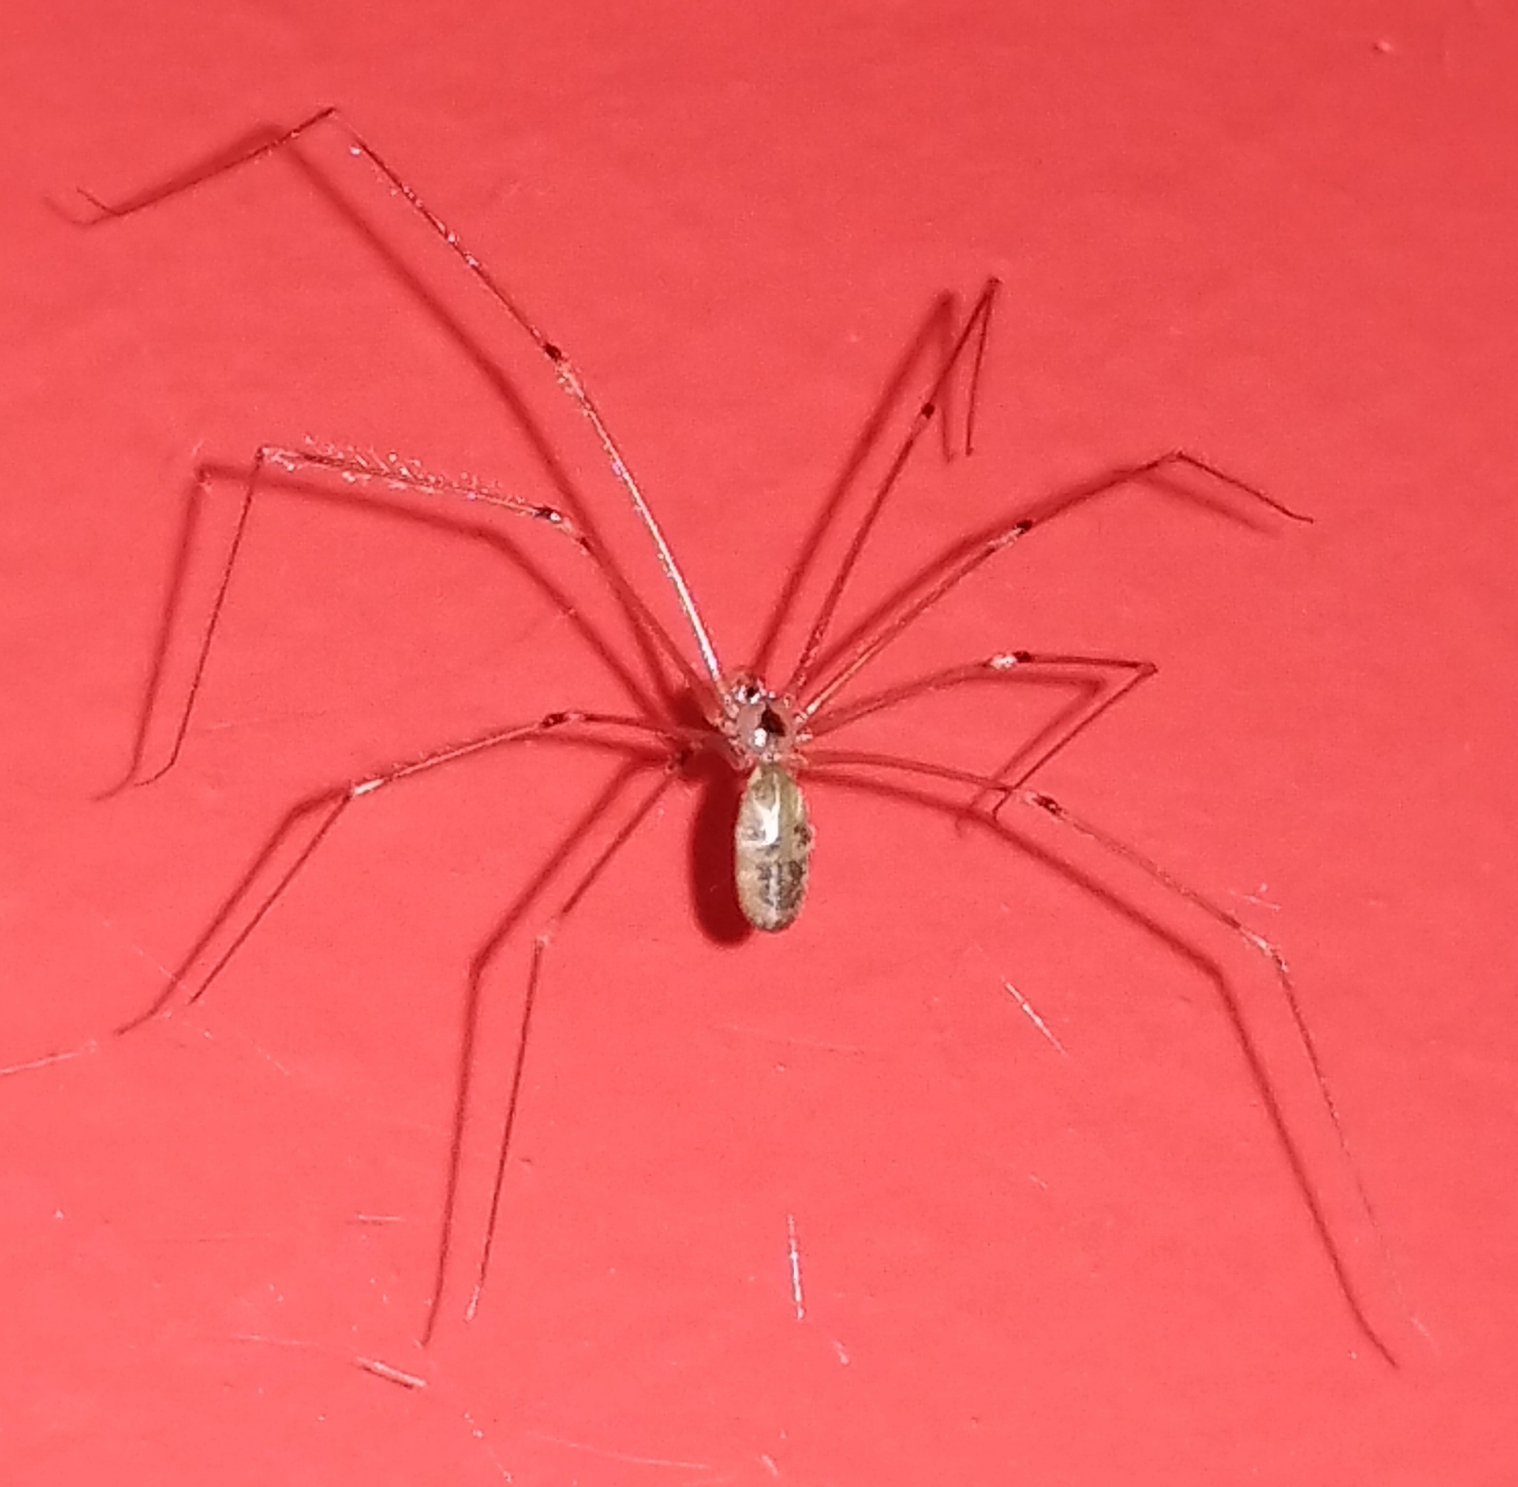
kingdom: Animalia
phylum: Arthropoda
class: Arachnida
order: Araneae
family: Pholcidae
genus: Pholcus
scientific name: Pholcus phalangioides
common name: Mejeredderkop
